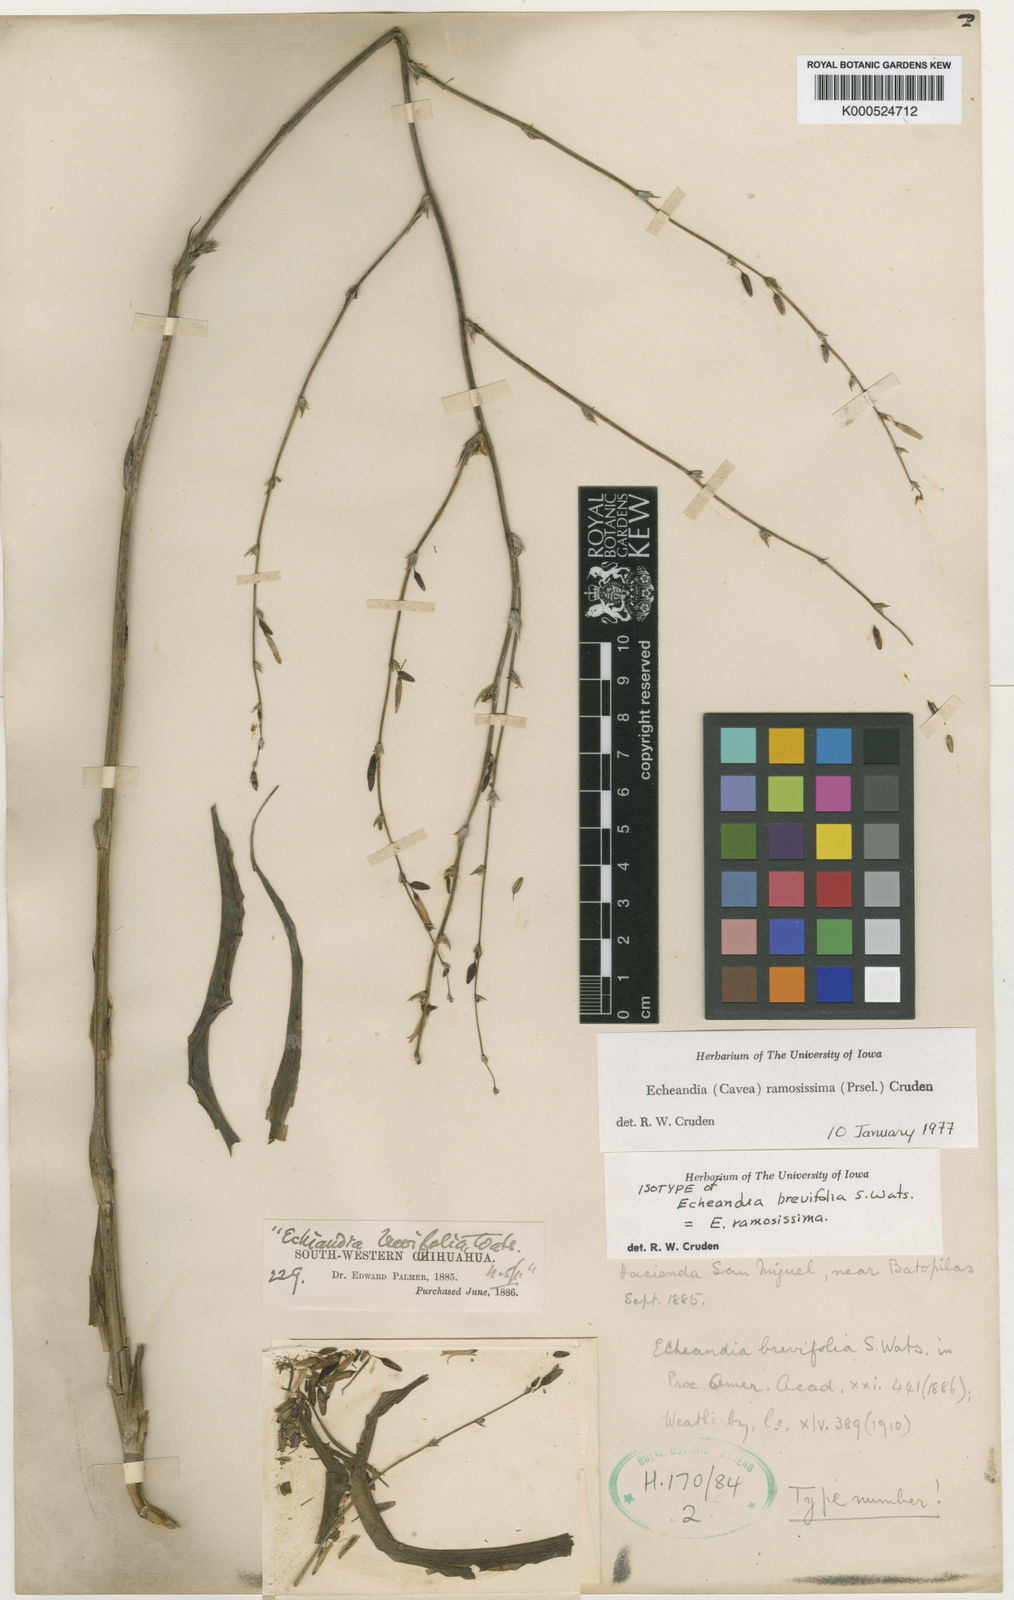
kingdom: Plantae
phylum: Tracheophyta
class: Liliopsida
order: Asparagales
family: Asparagaceae
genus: Echeandia
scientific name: Echeandia ramosissima
